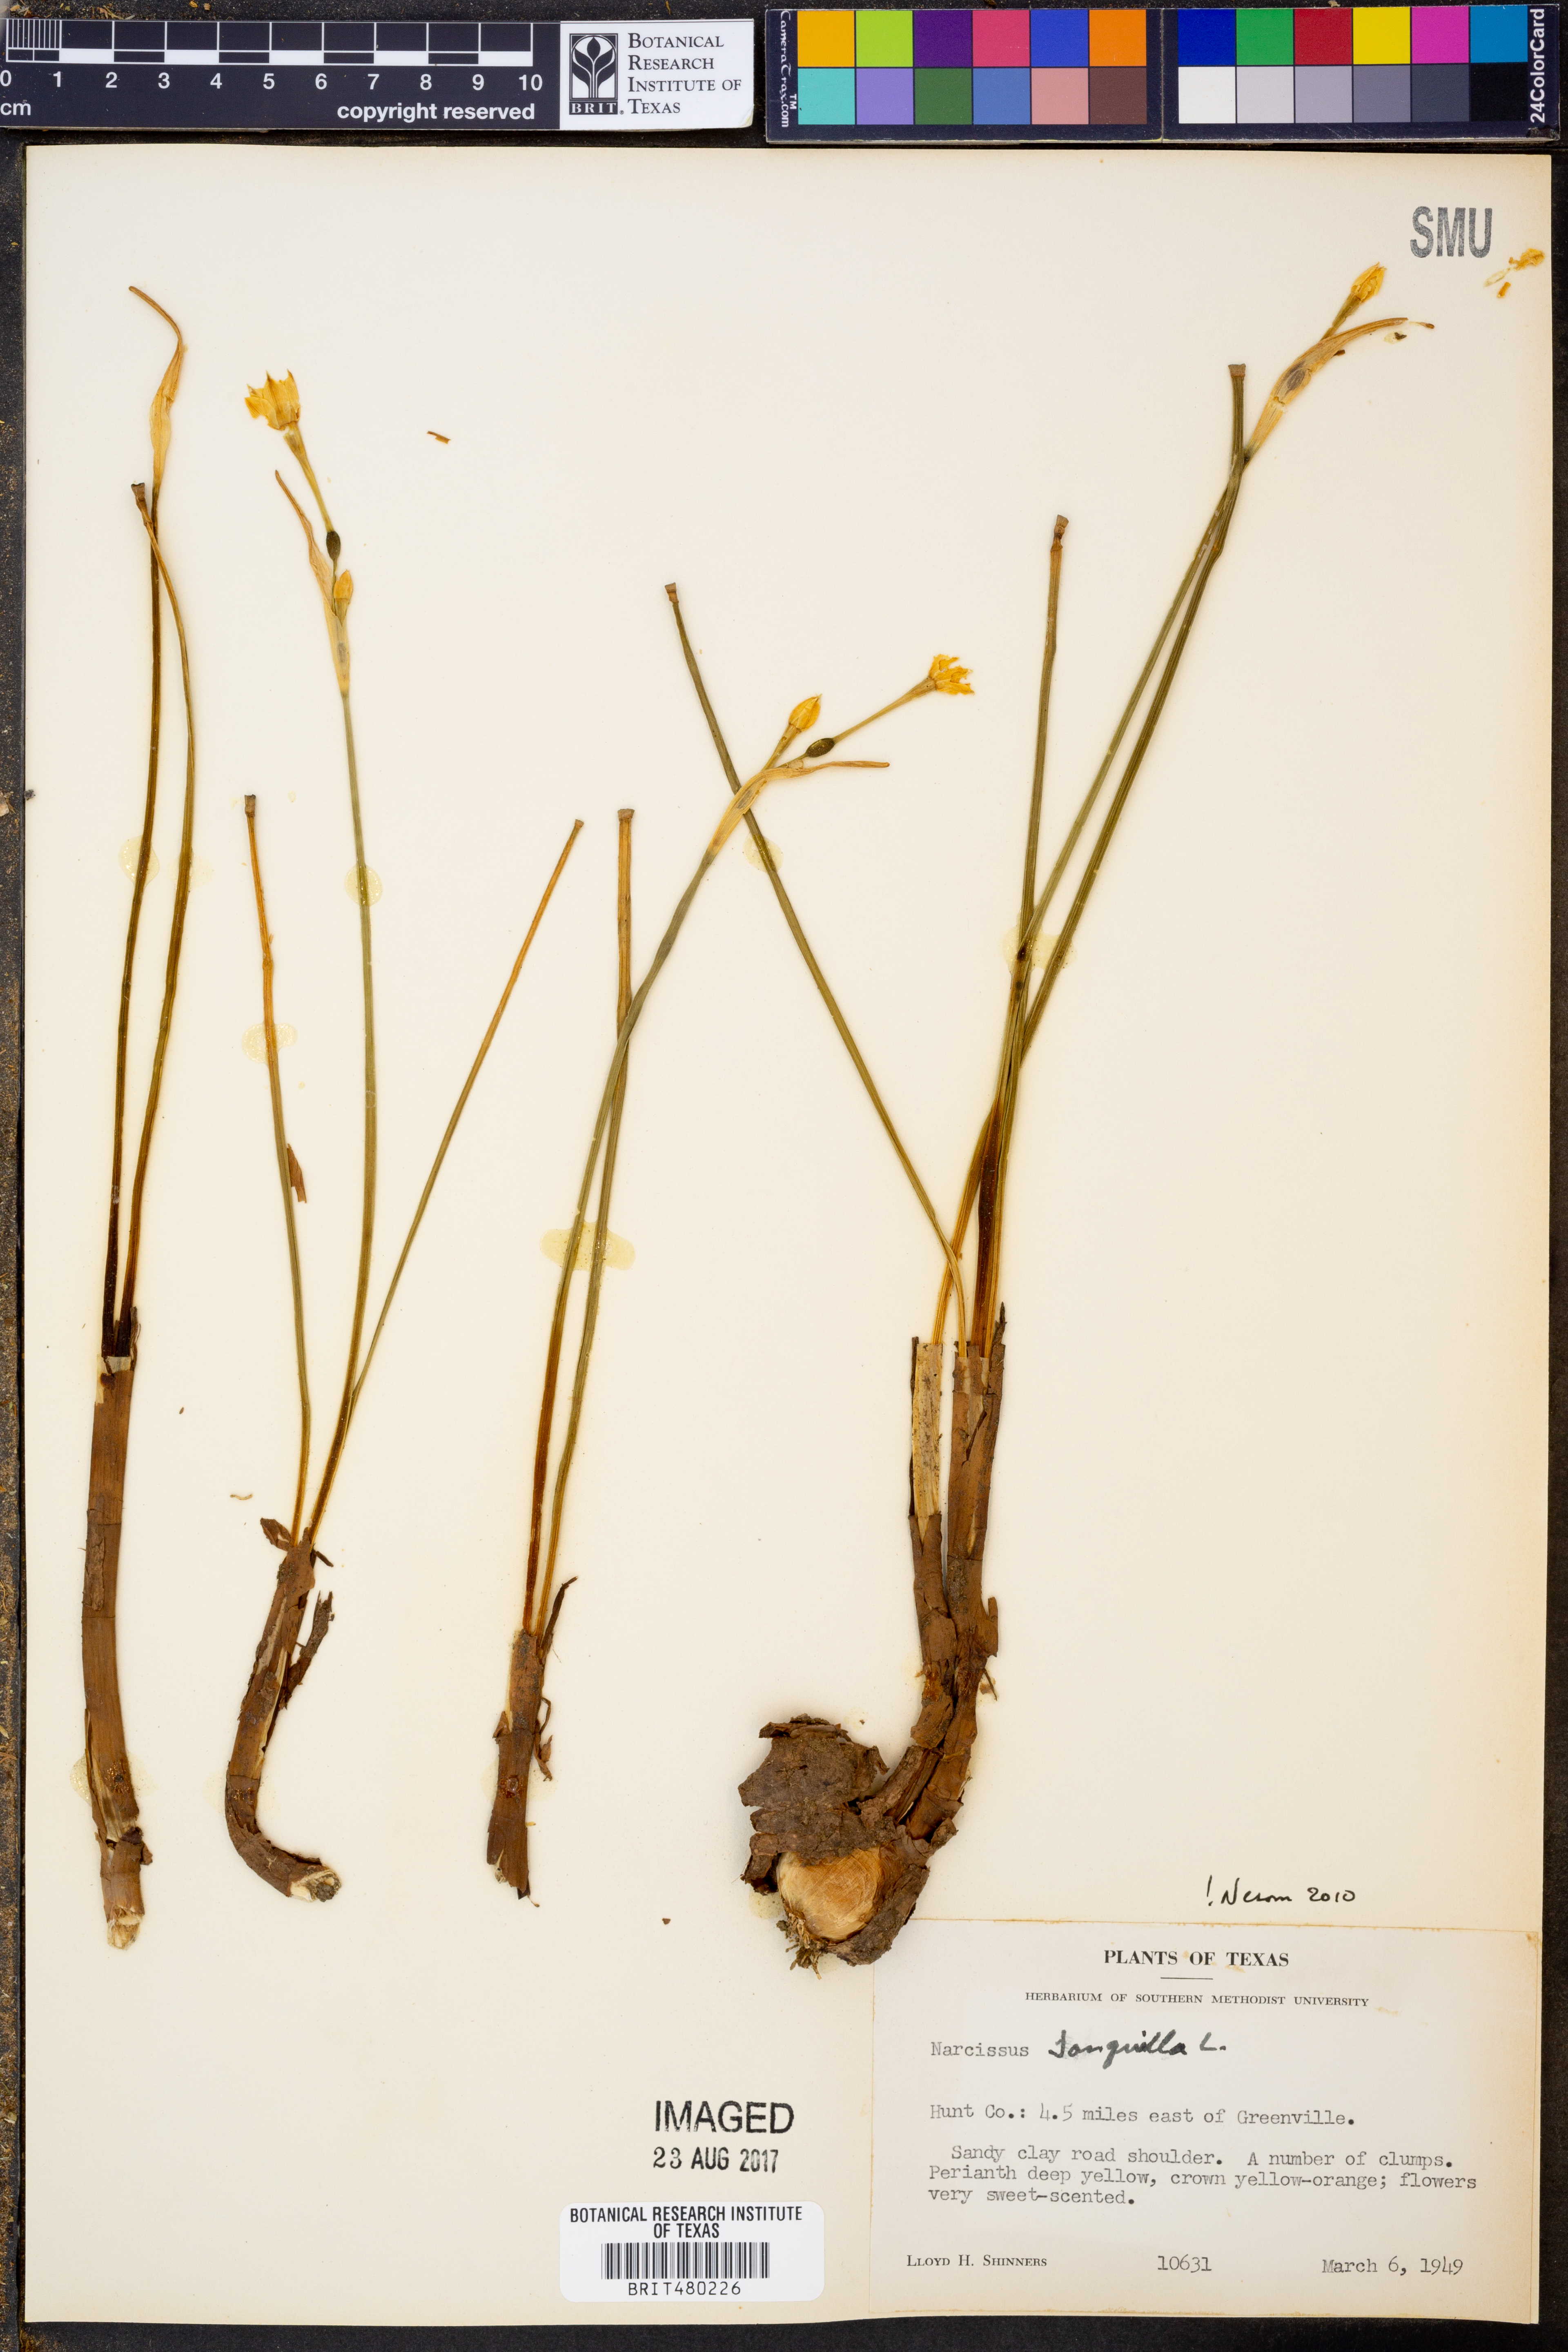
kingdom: Plantae
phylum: Tracheophyta
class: Liliopsida
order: Asparagales
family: Amaryllidaceae
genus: Narcissus
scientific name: Narcissus jonquilla
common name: Jonquil
